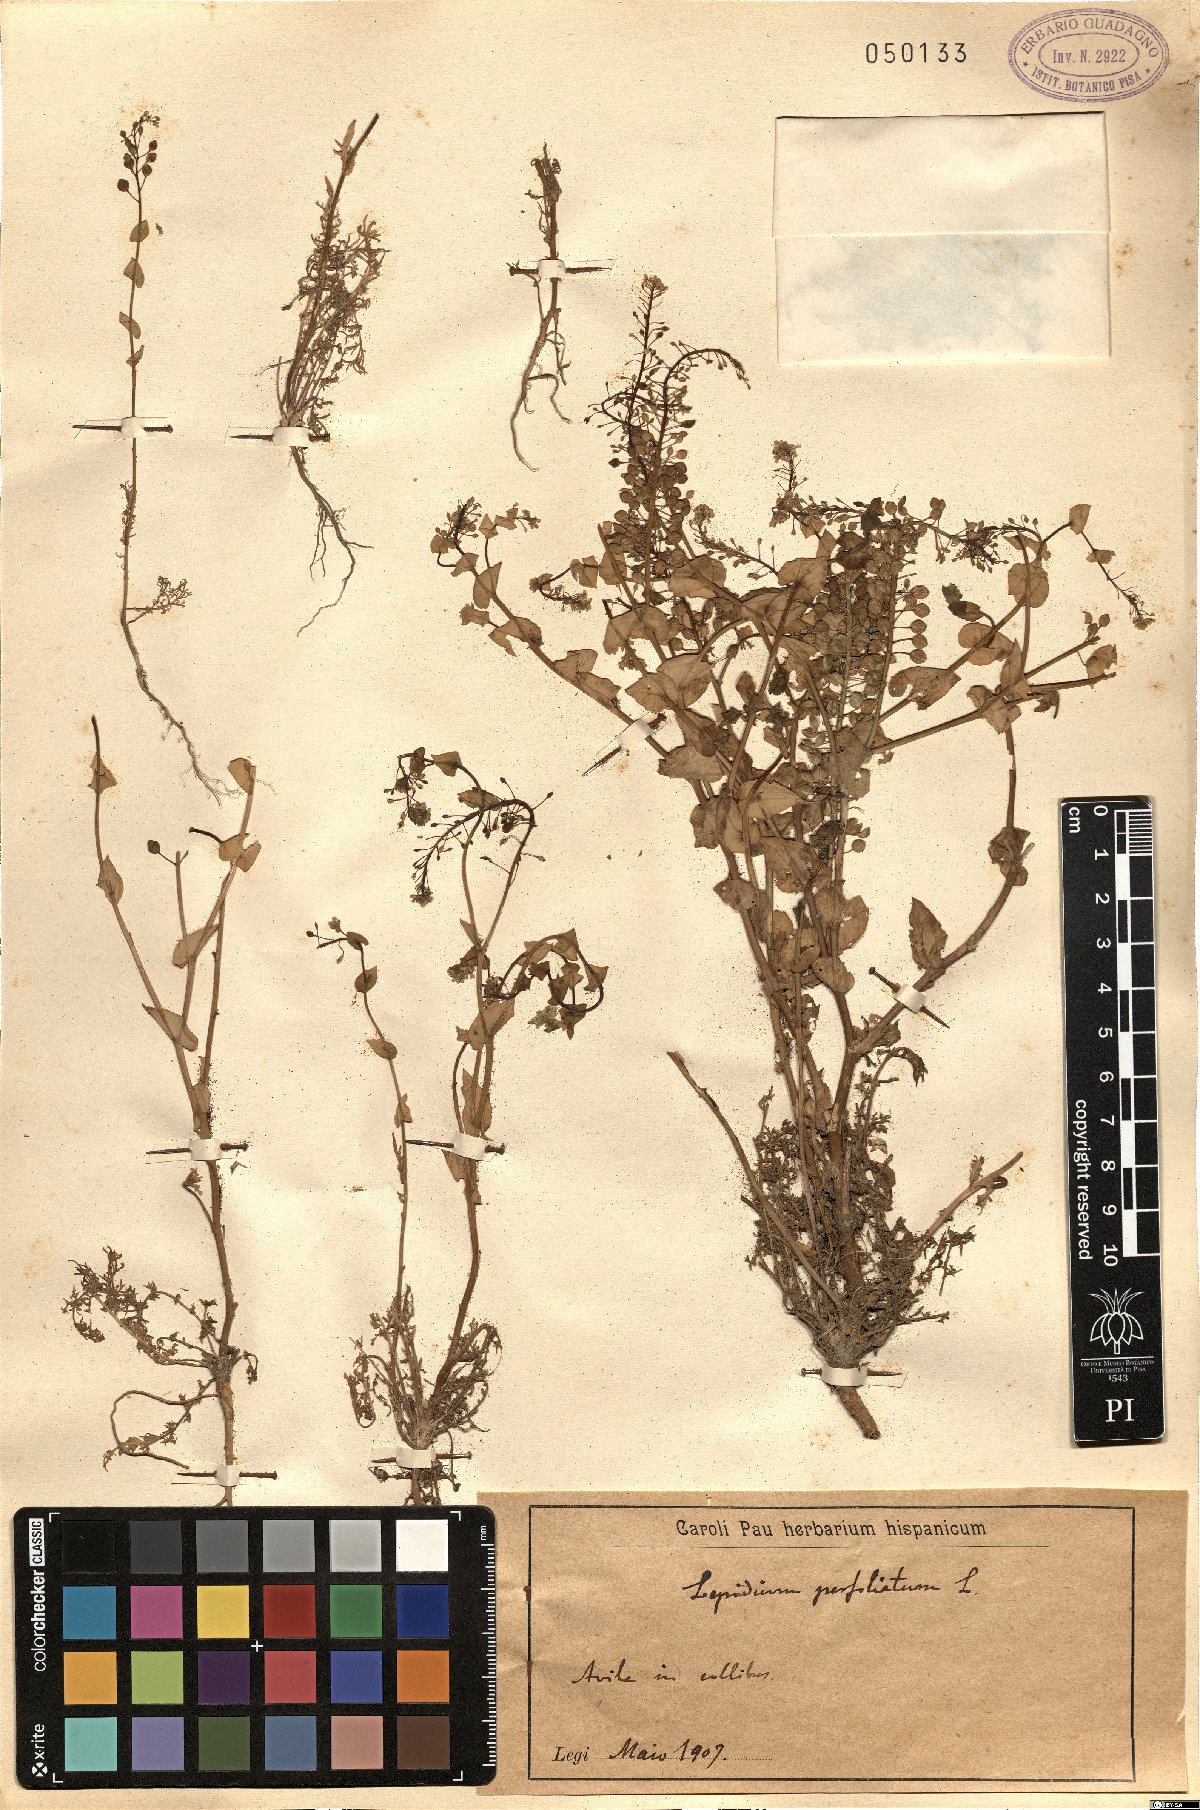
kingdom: Plantae
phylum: Tracheophyta
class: Magnoliopsida
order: Brassicales
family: Brassicaceae
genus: Lepidium
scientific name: Lepidium perfoliatum
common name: Perfoliate pepperwort
